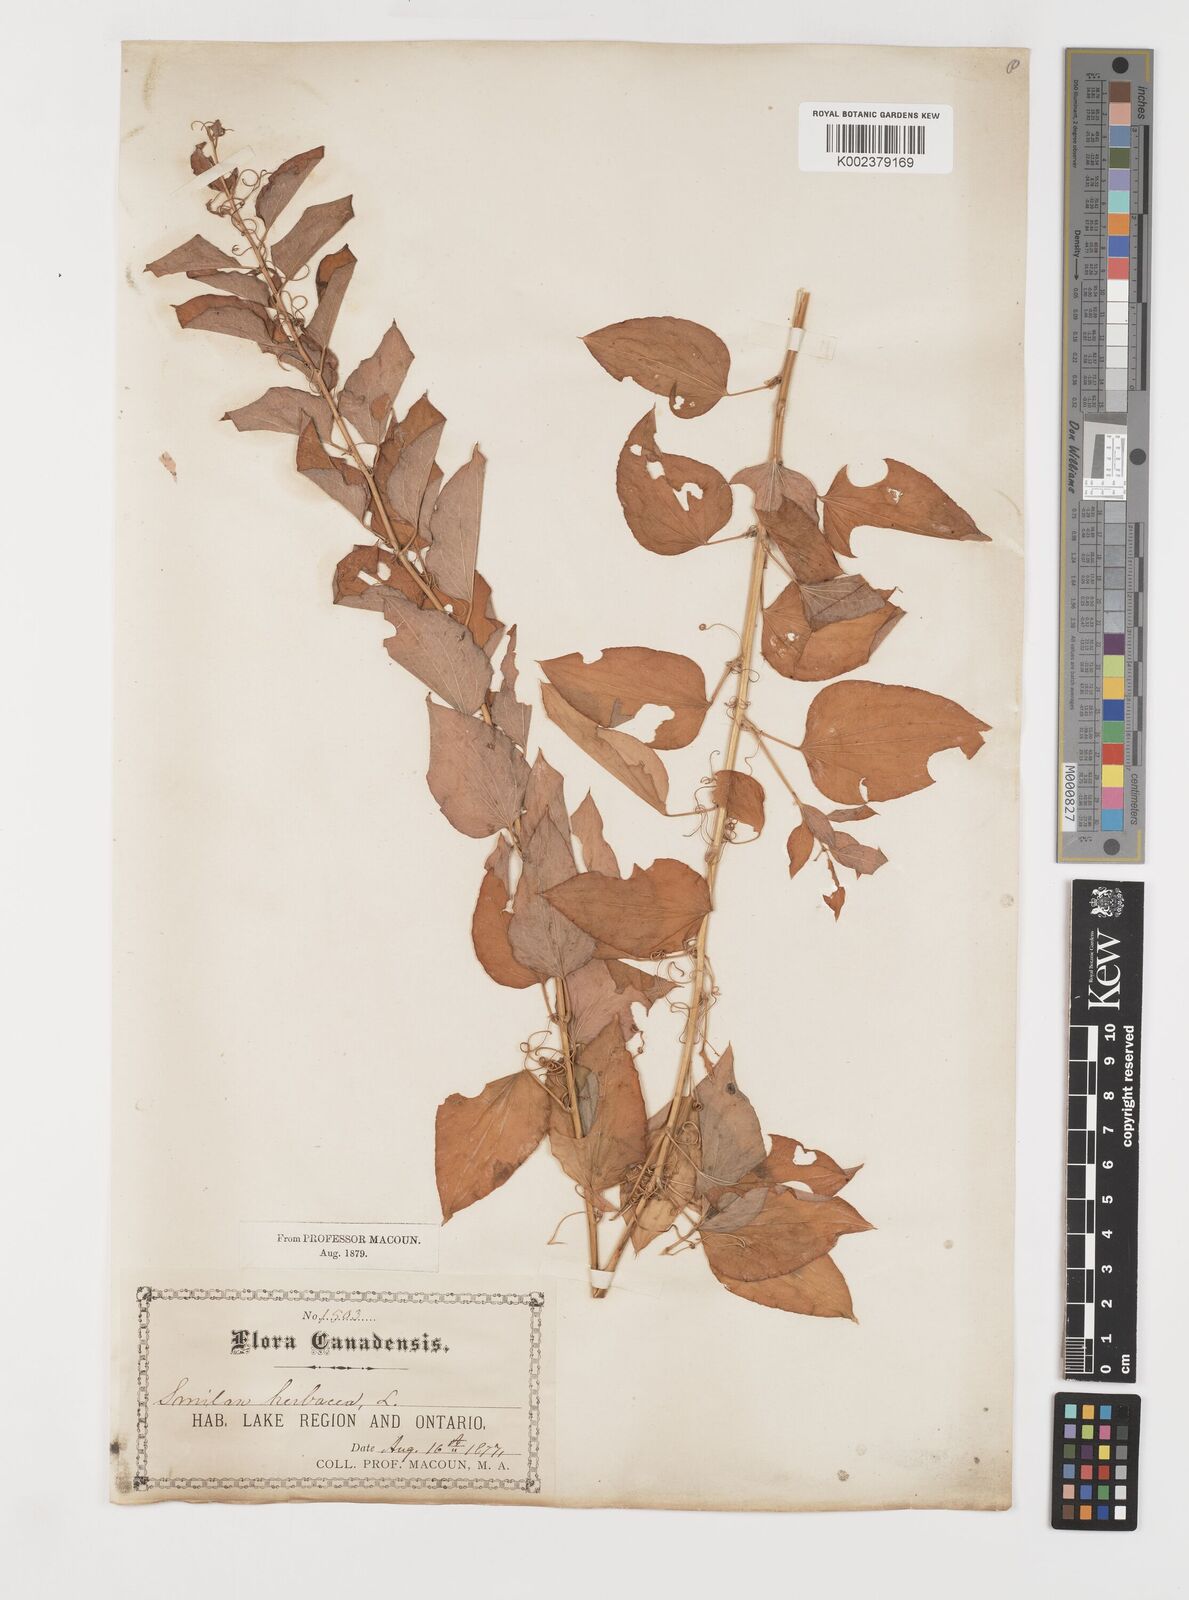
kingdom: Plantae
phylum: Tracheophyta
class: Liliopsida
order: Liliales
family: Smilacaceae
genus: Smilax
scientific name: Smilax herbacea
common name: Jacob's-ladder
